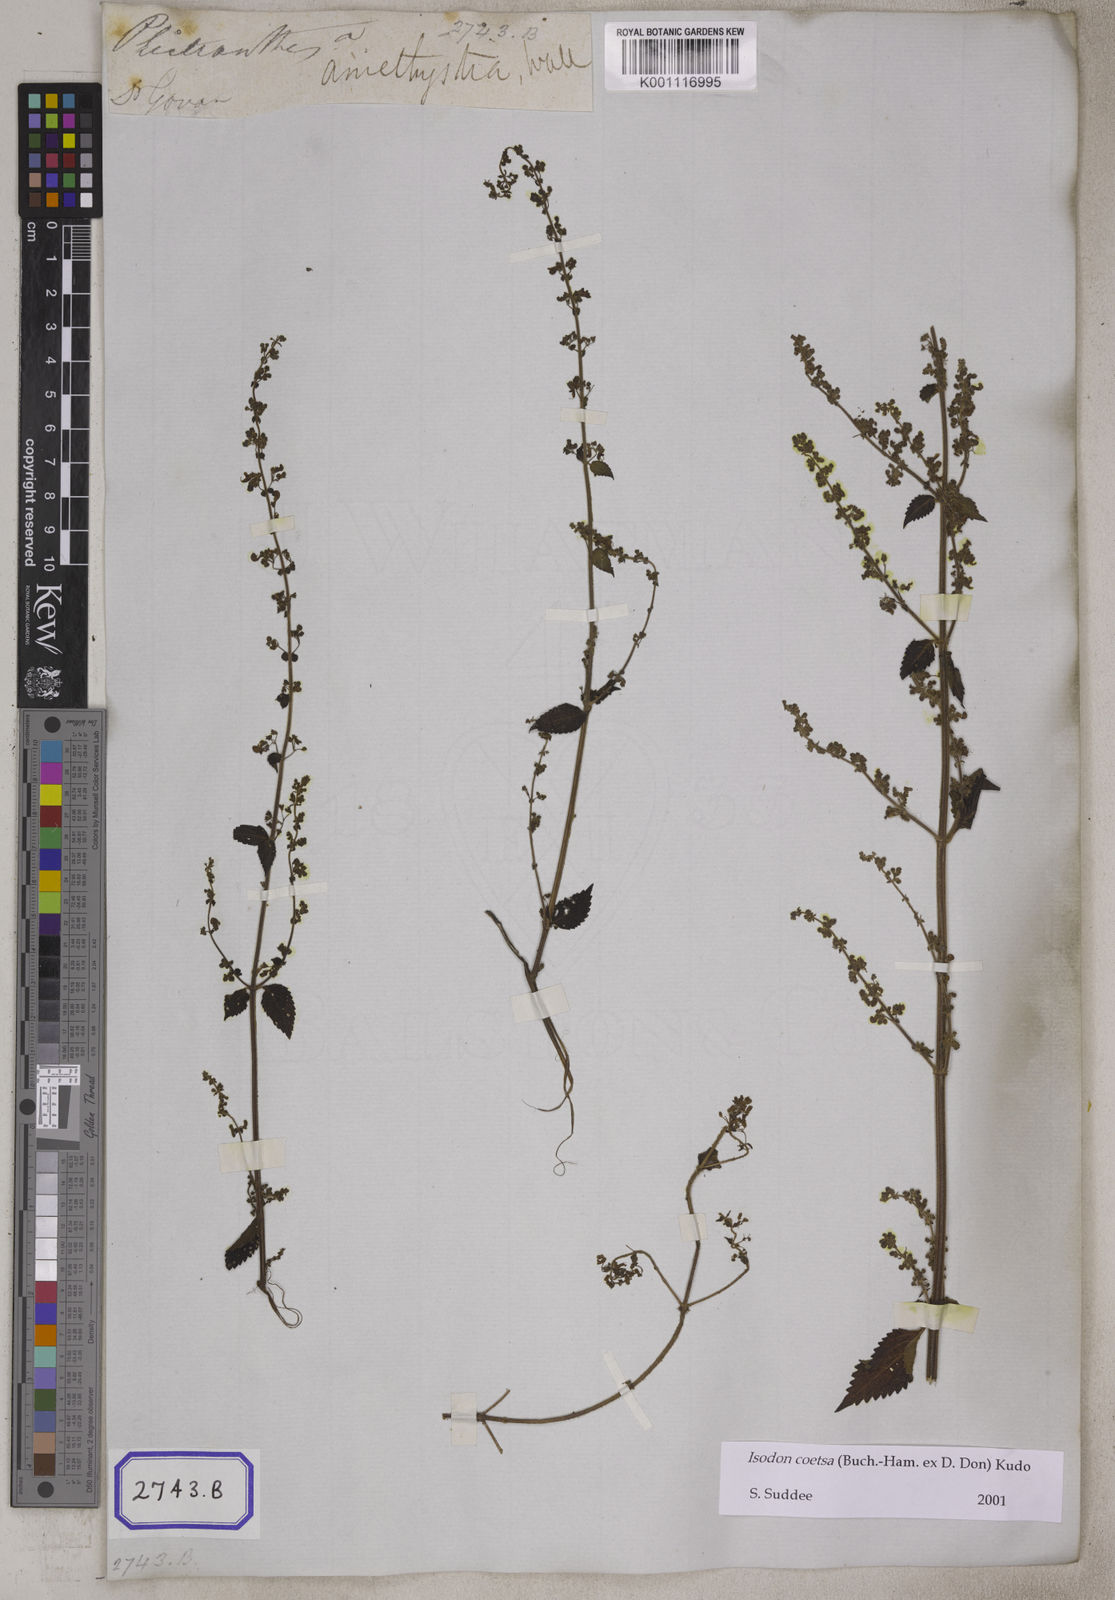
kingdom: Plantae
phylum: Tracheophyta
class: Magnoliopsida
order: Lamiales
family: Lamiaceae
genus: Isodon
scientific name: Isodon coetsa
